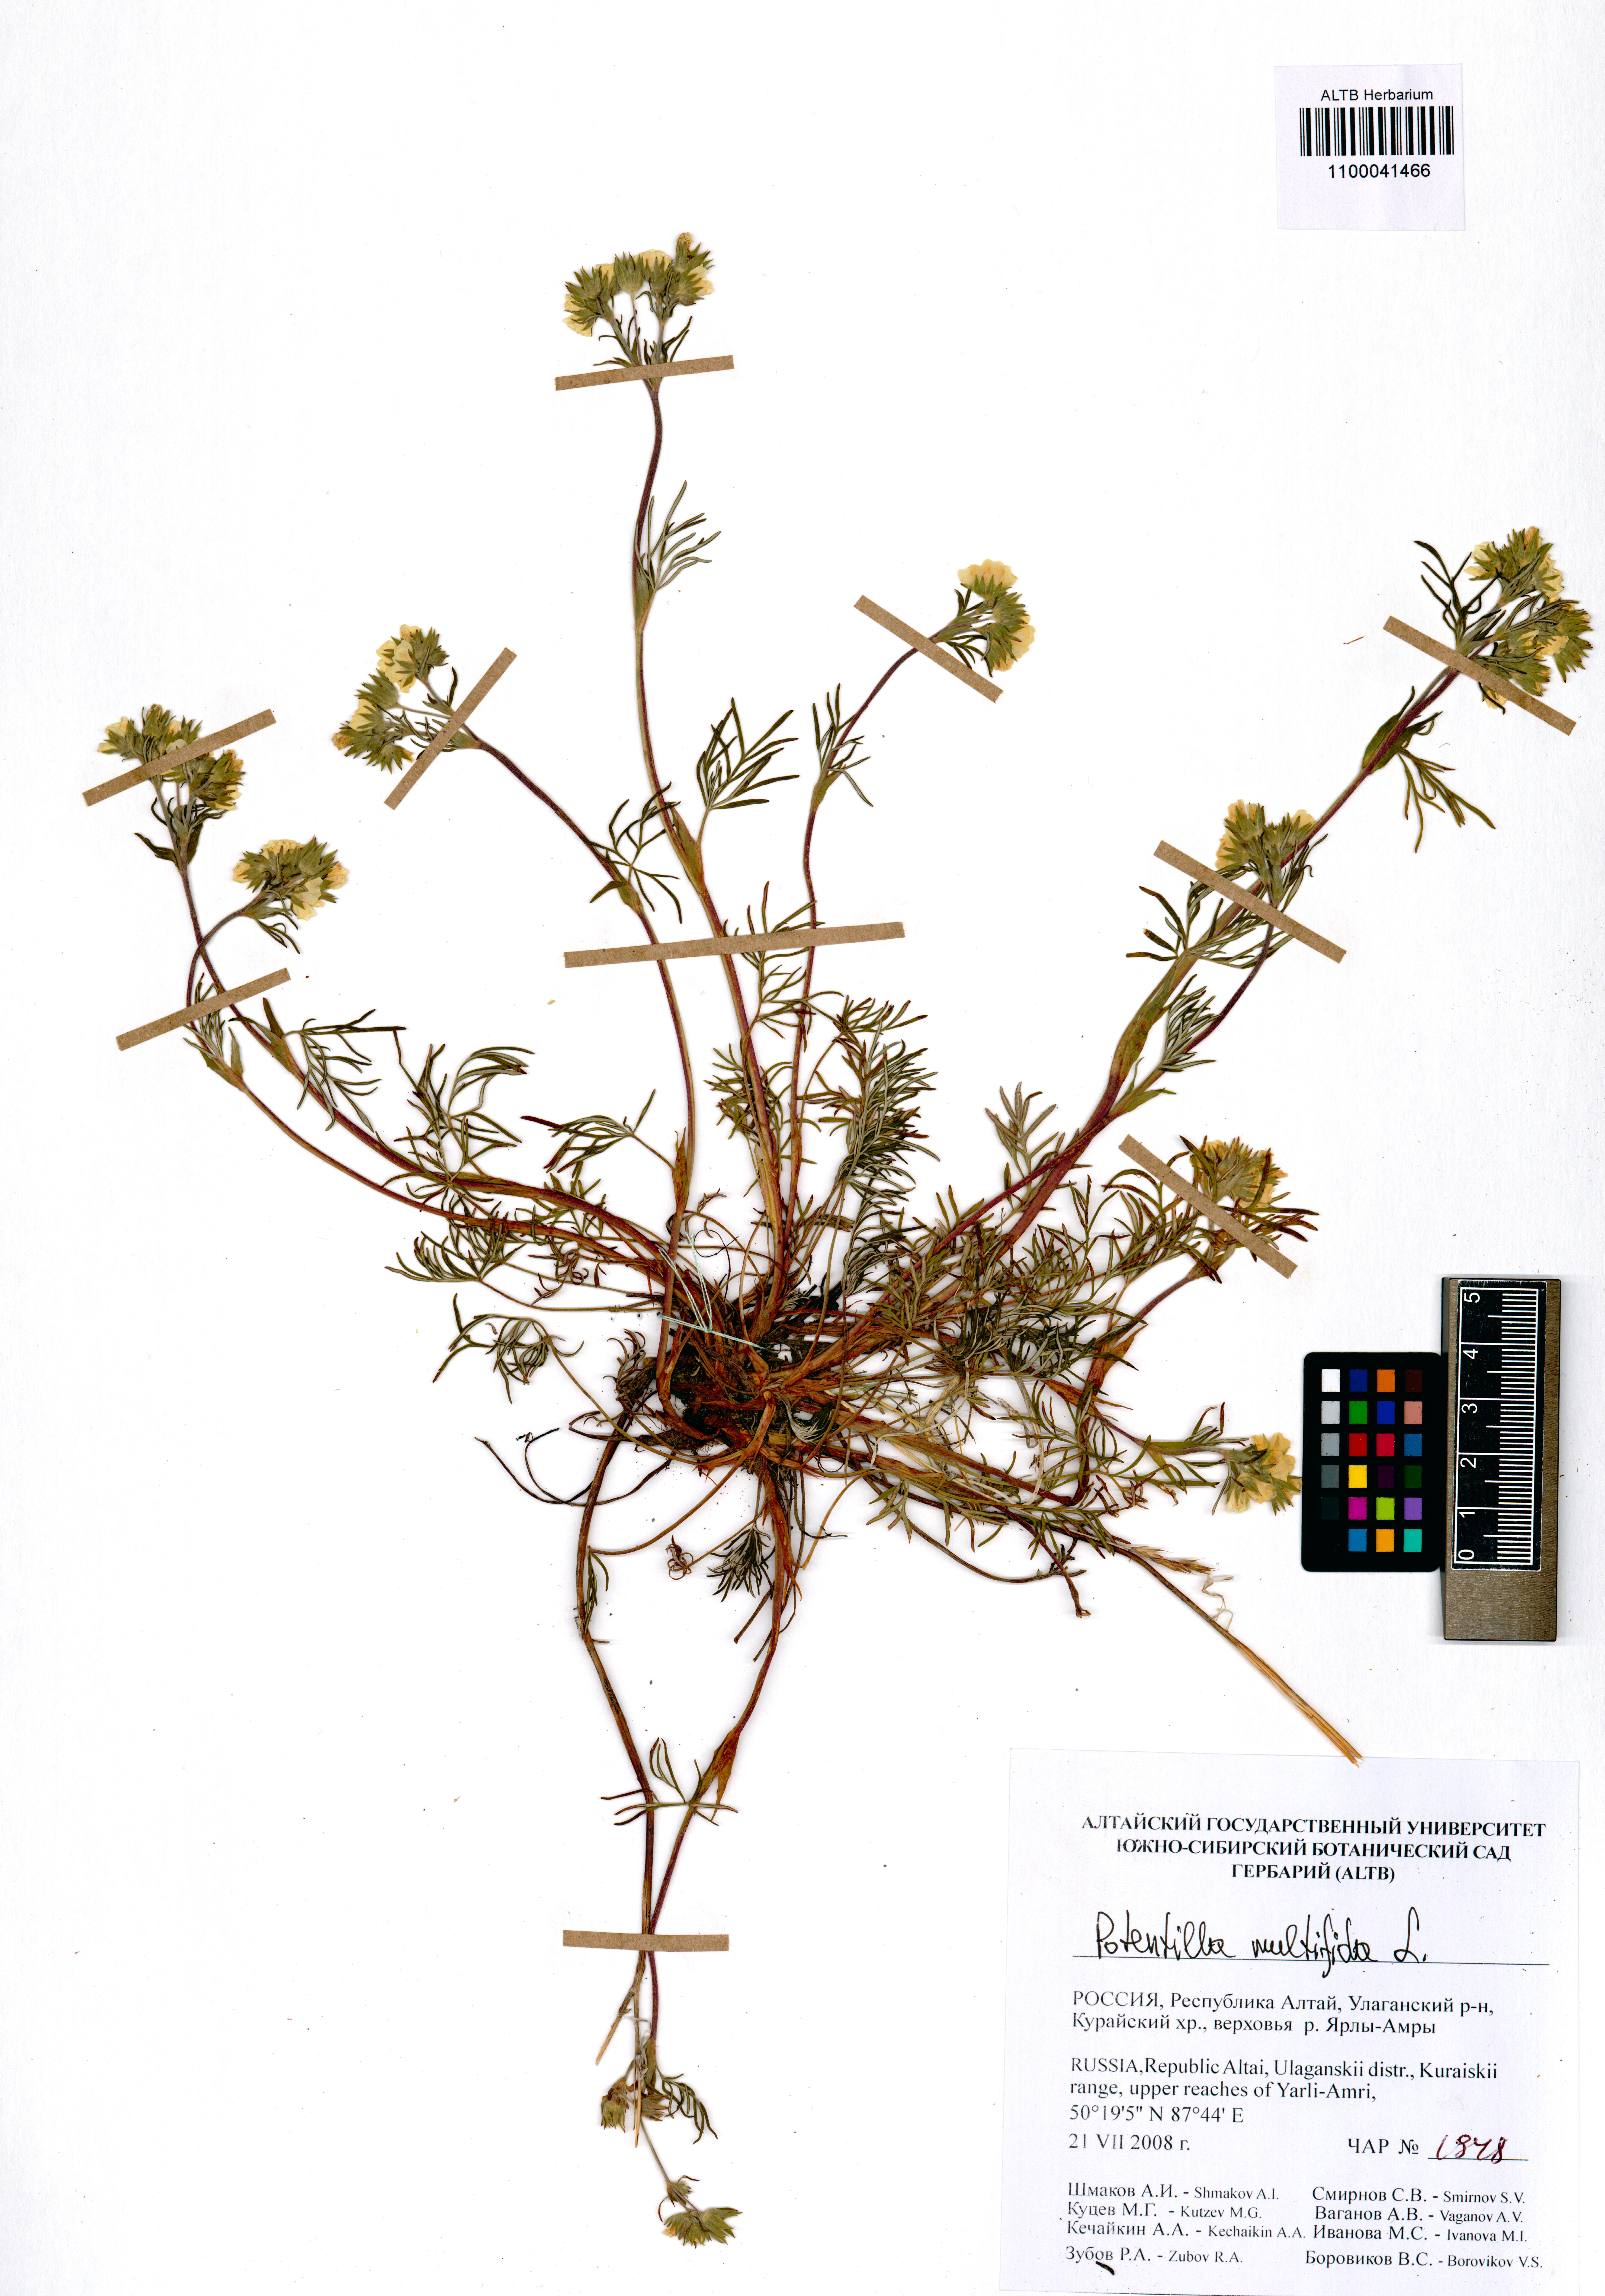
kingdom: Plantae
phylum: Tracheophyta
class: Magnoliopsida
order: Rosales
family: Rosaceae
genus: Potentilla
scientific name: Potentilla multifida
